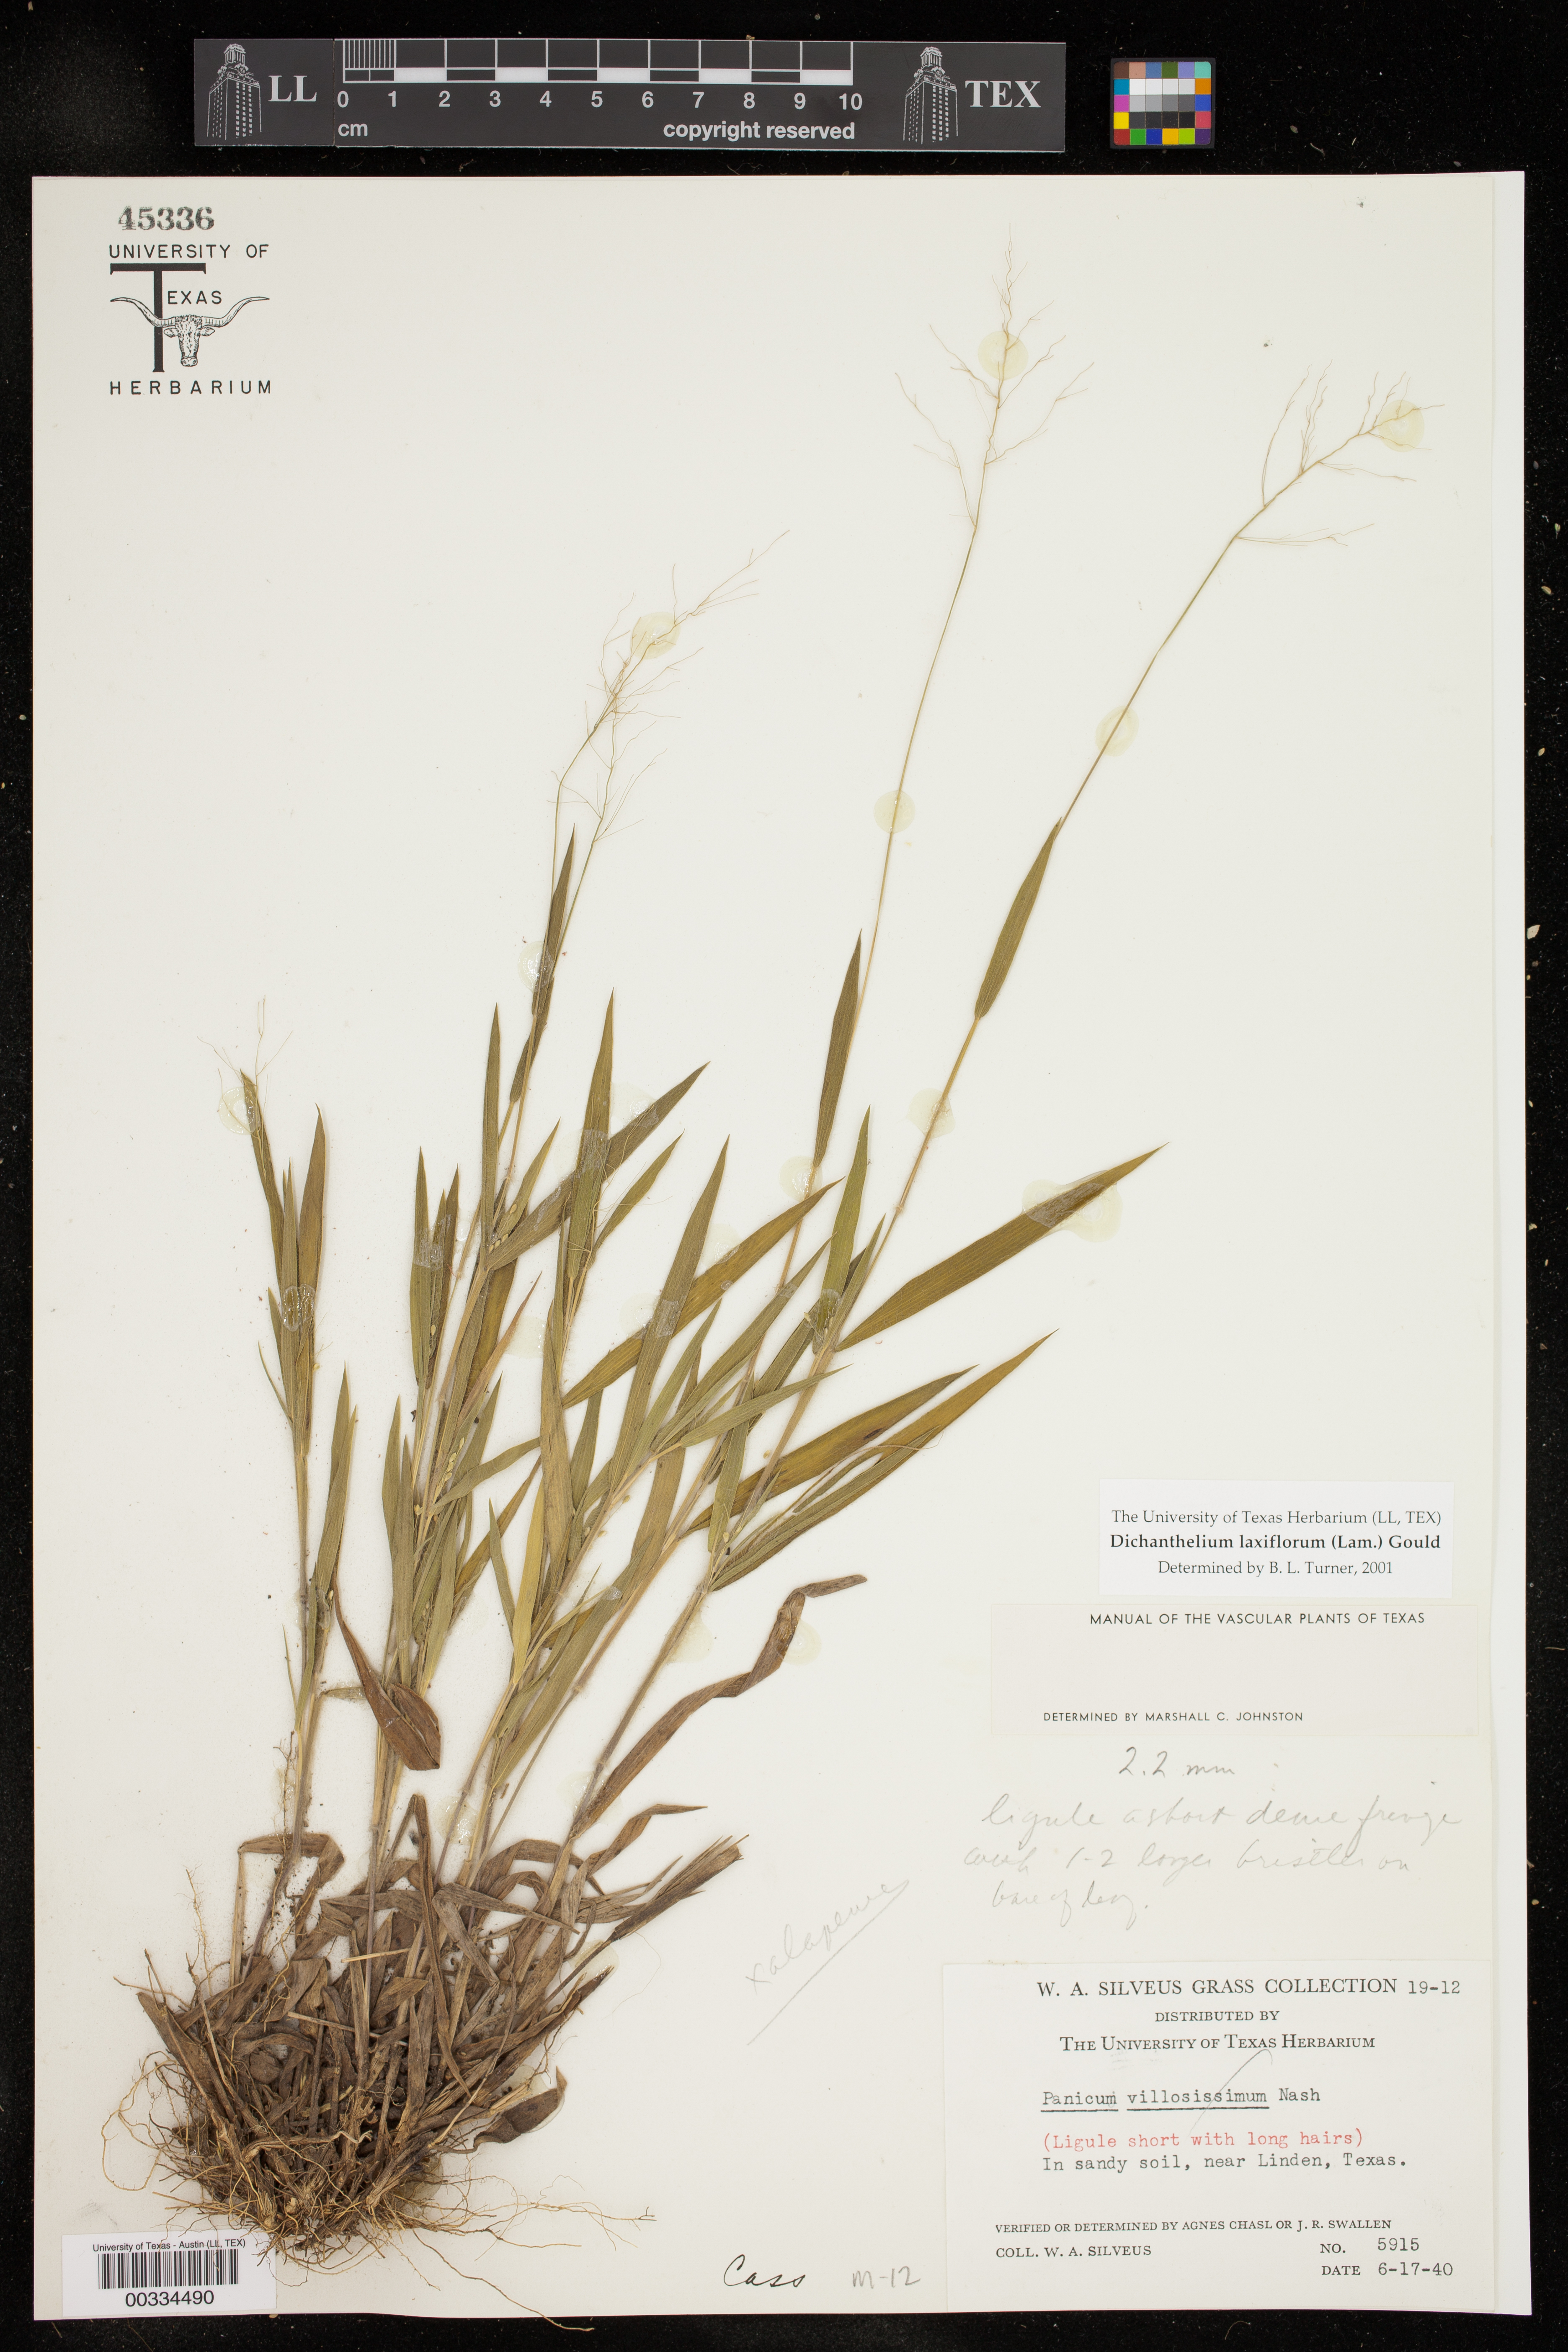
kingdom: Plantae
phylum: Tracheophyta
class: Liliopsida
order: Poales
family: Poaceae
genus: Dichanthelium
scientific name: Dichanthelium laxiflorum
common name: Soft-tuft panic grass
